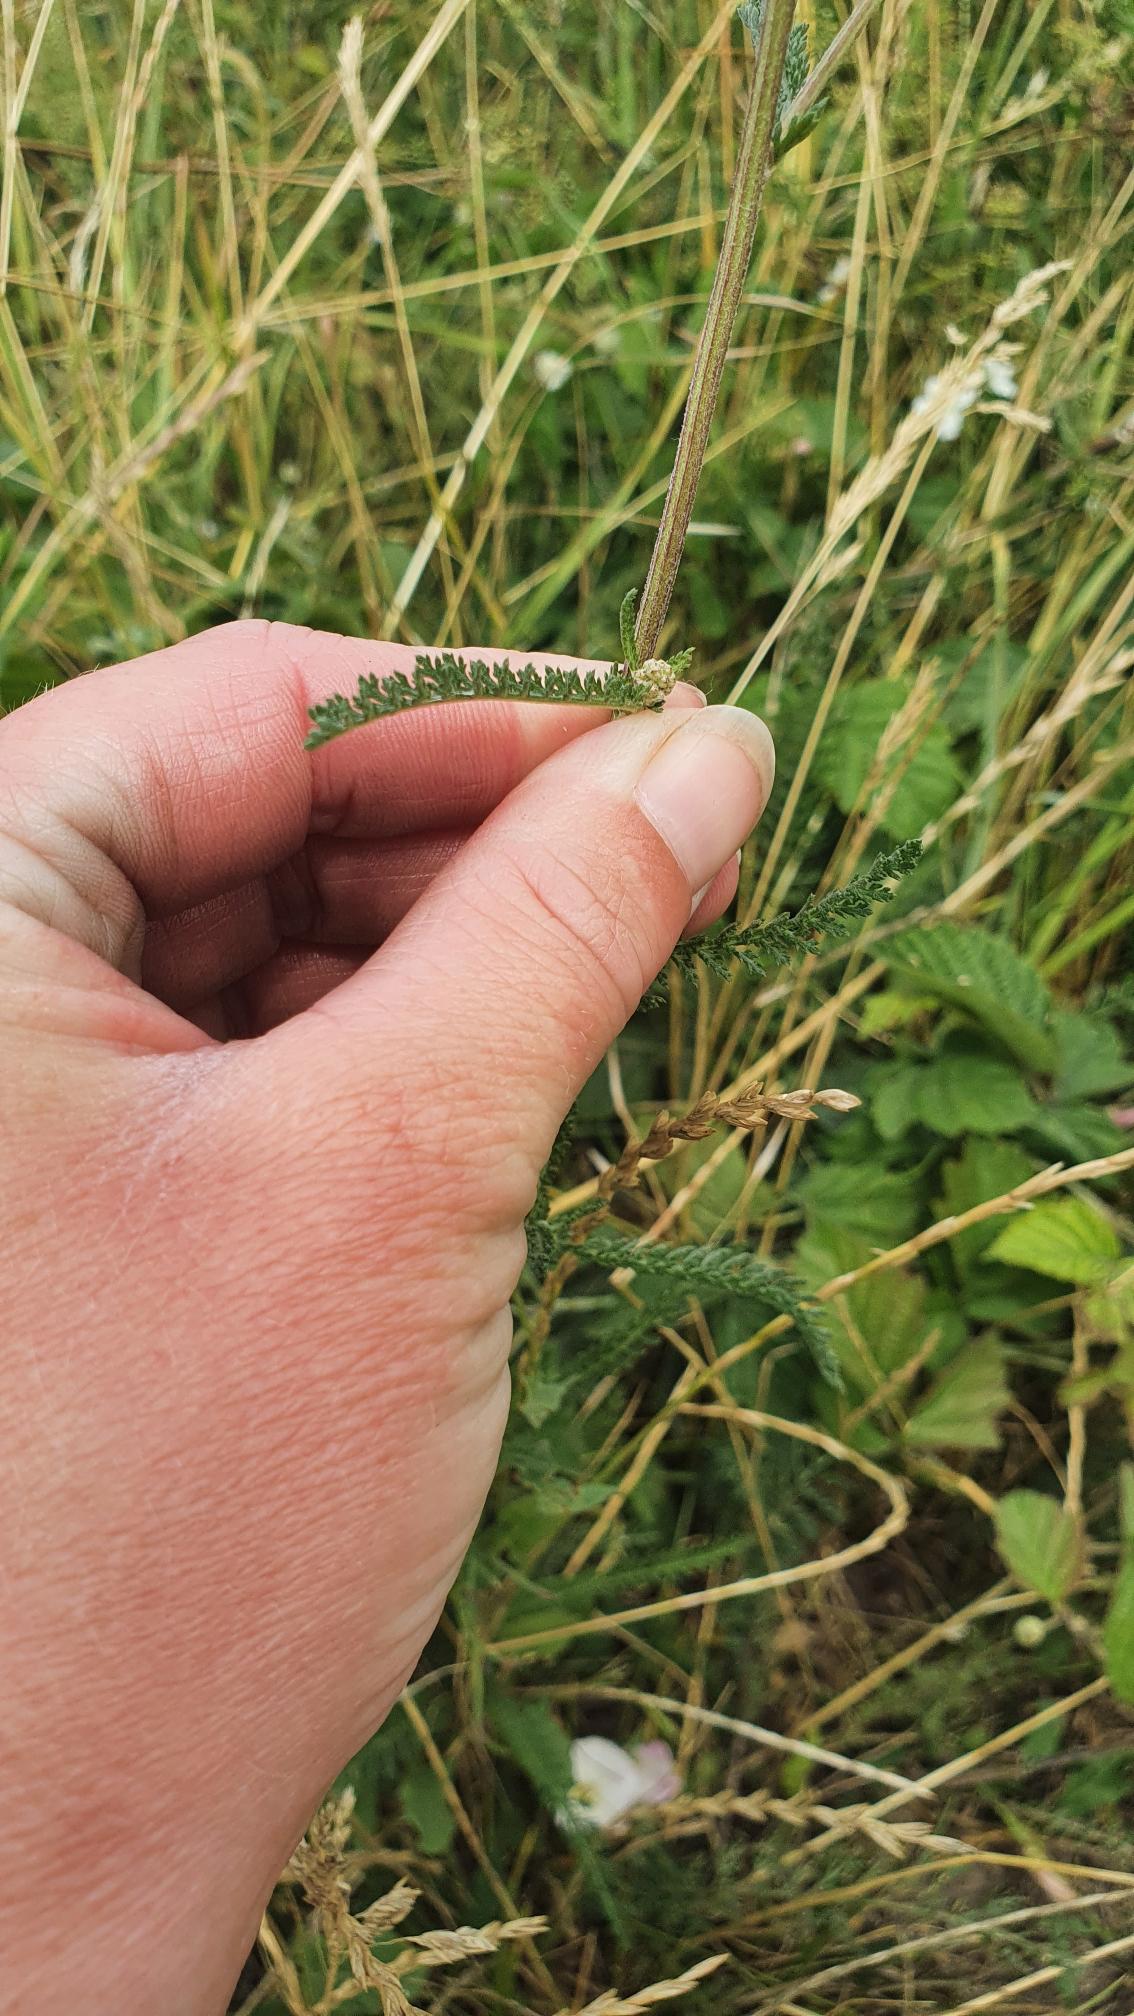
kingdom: Plantae
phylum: Tracheophyta
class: Magnoliopsida
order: Asterales
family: Asteraceae
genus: Achillea
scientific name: Achillea millefolium
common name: Almindelig røllike
